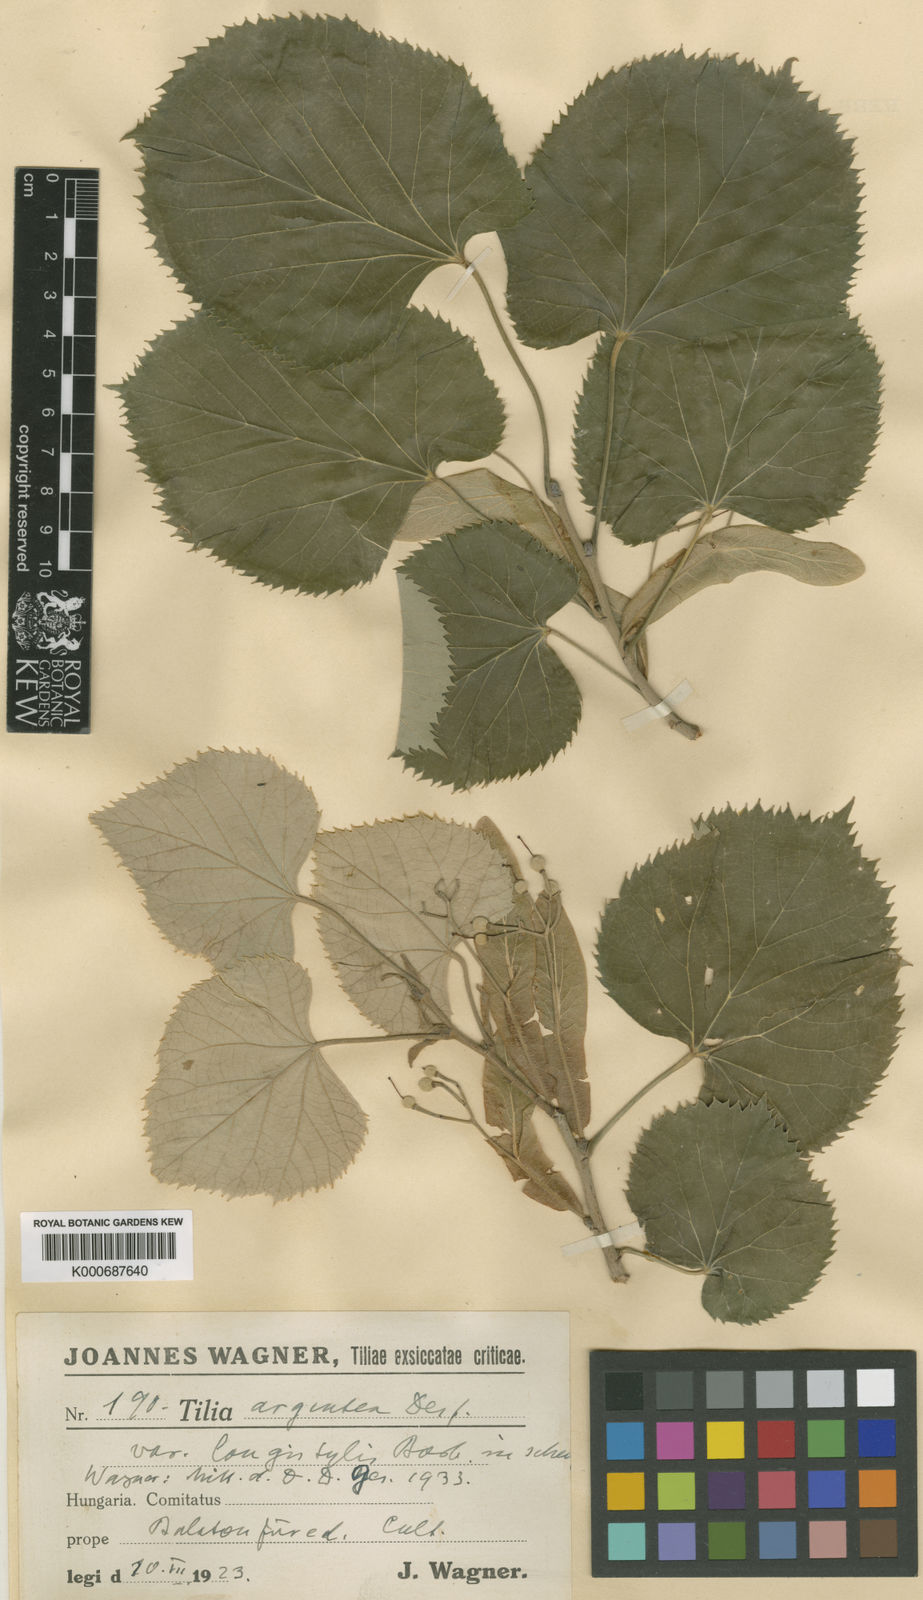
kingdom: Plantae
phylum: Tracheophyta
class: Magnoliopsida
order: Malvales
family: Malvaceae
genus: Tilia
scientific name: Tilia tomentosa
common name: Silver lime
